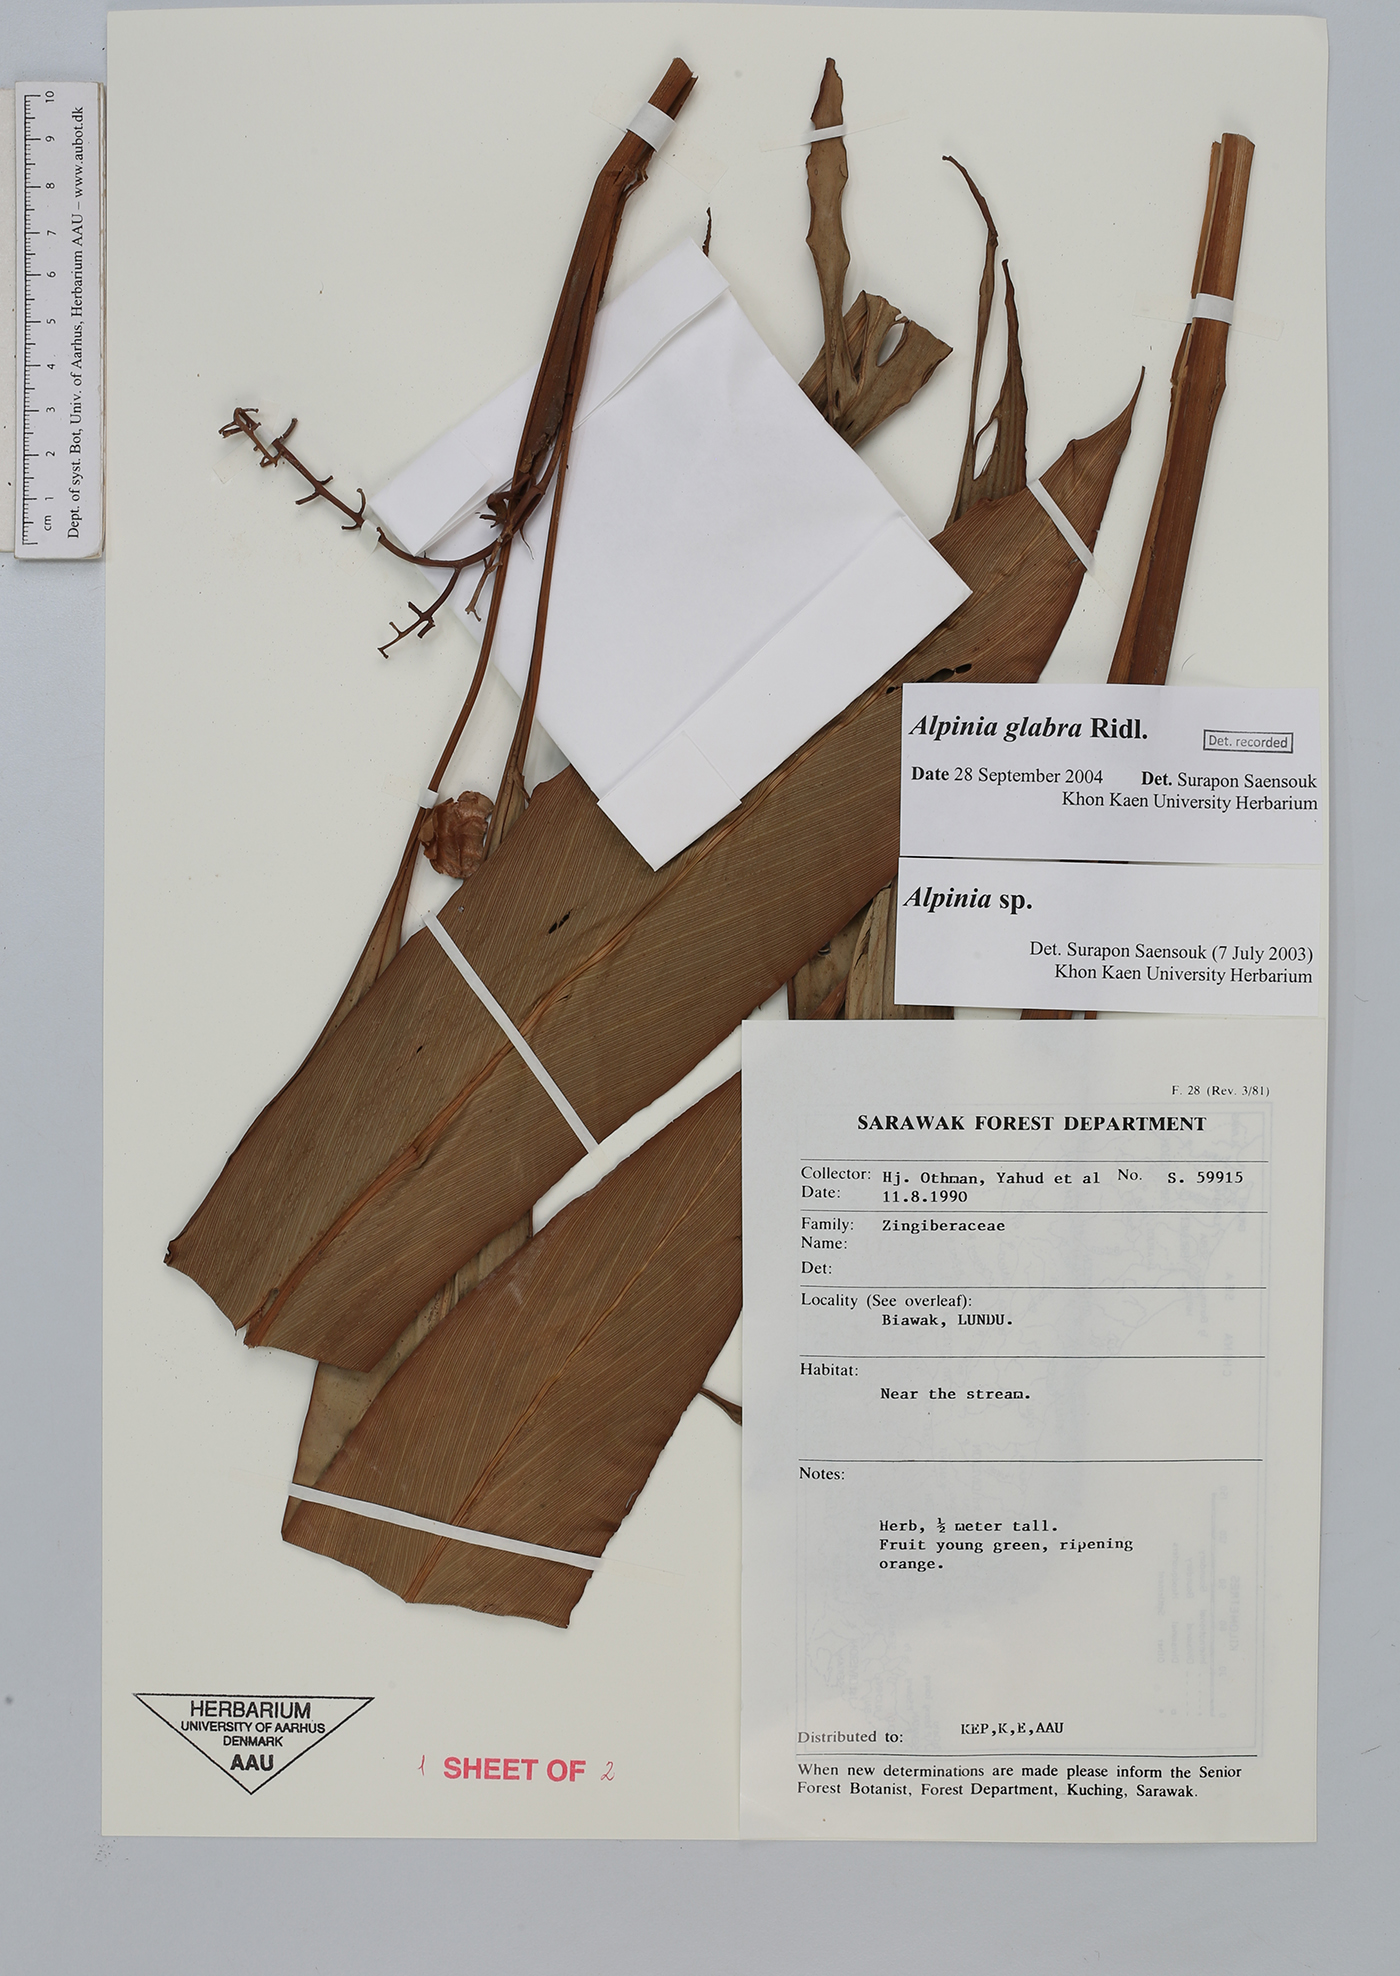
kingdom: Plantae
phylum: Tracheophyta
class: Liliopsida
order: Zingiberales
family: Zingiberaceae
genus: Alpinia
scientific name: Alpinia glabra
